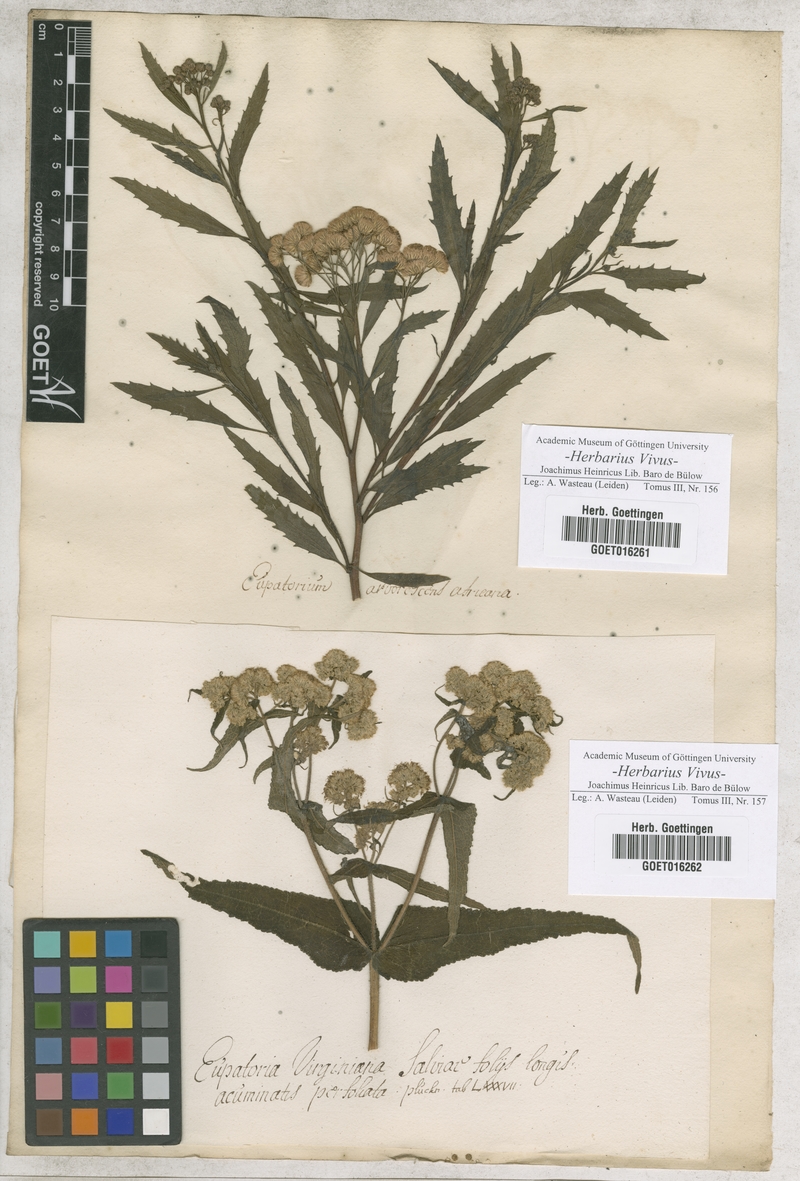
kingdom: Plantae
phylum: Tracheophyta
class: Magnoliopsida
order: Asterales
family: Asteraceae
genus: Eupatorium
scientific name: Eupatorium
